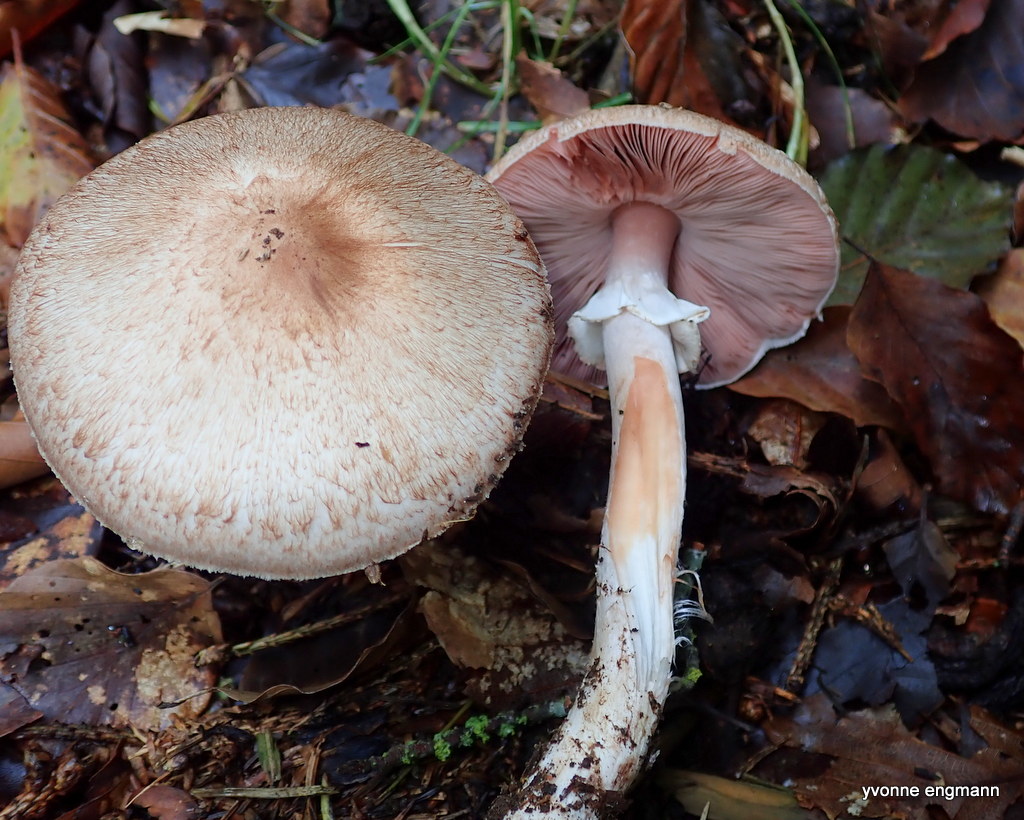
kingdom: Fungi
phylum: Basidiomycota
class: Agaricomycetes
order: Agaricales
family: Agaricaceae
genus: Agaricus
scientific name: Agaricus
